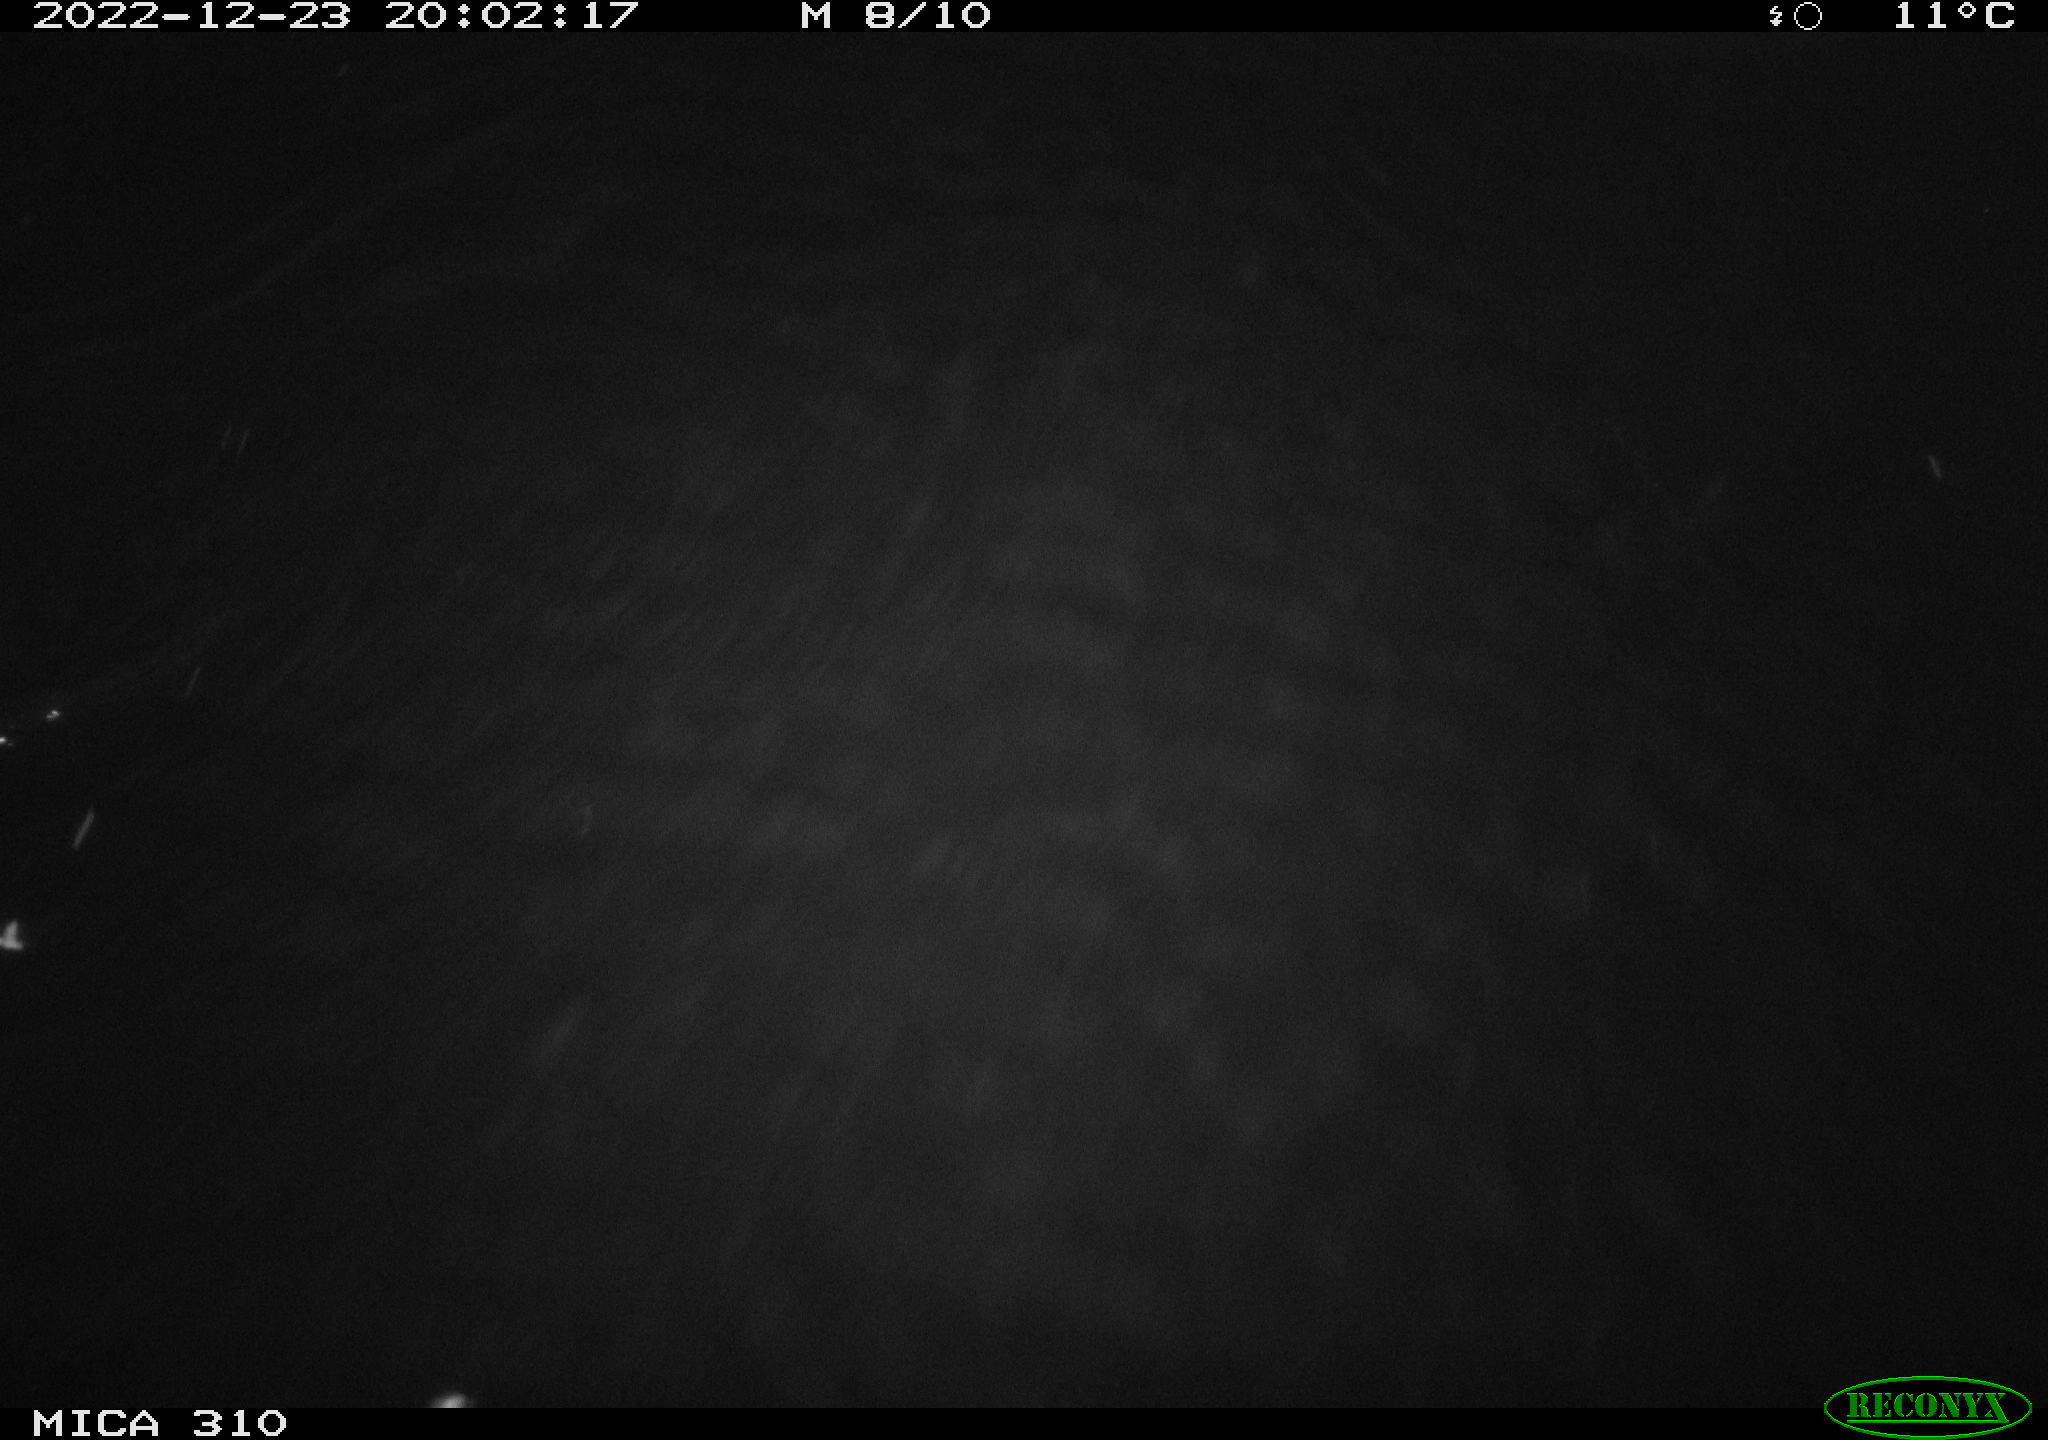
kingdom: Animalia
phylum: Chordata
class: Mammalia
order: Rodentia
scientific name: Rodentia
